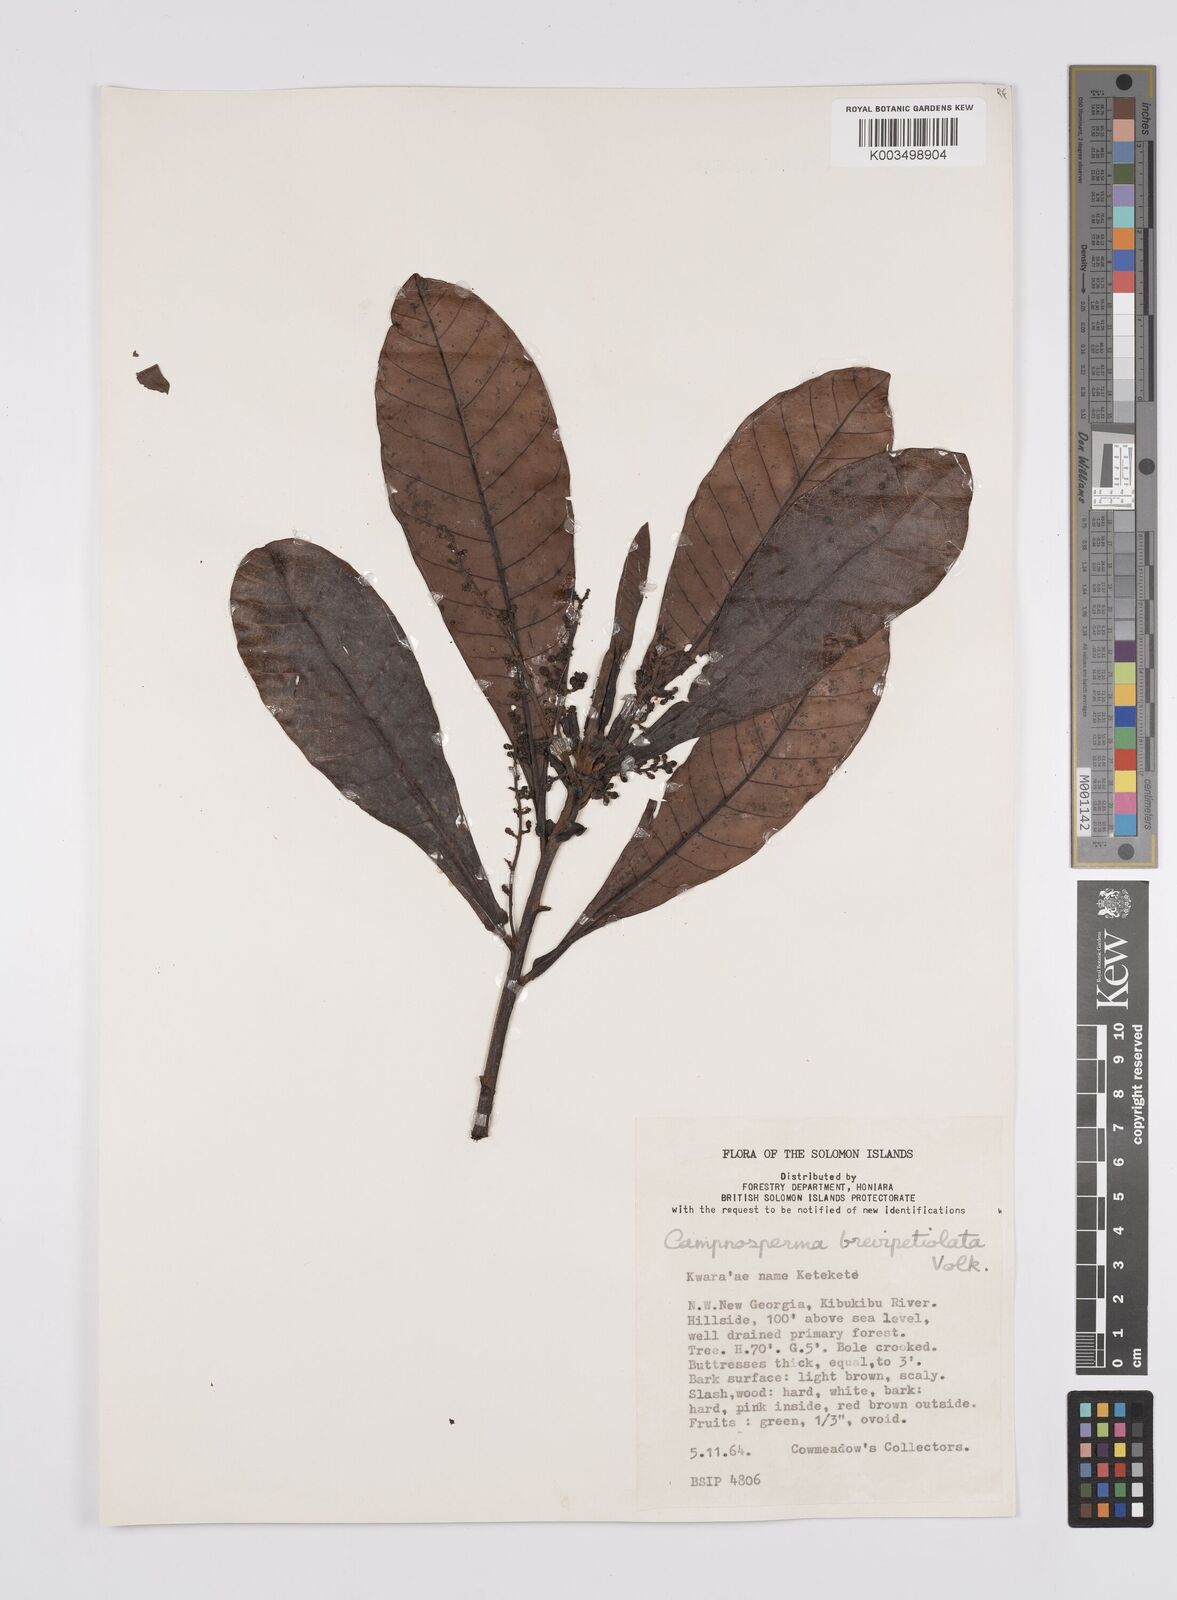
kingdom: Plantae
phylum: Tracheophyta
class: Magnoliopsida
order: Sapindales
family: Anacardiaceae
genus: Campnosperma
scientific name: Campnosperma brevipetiolatum
